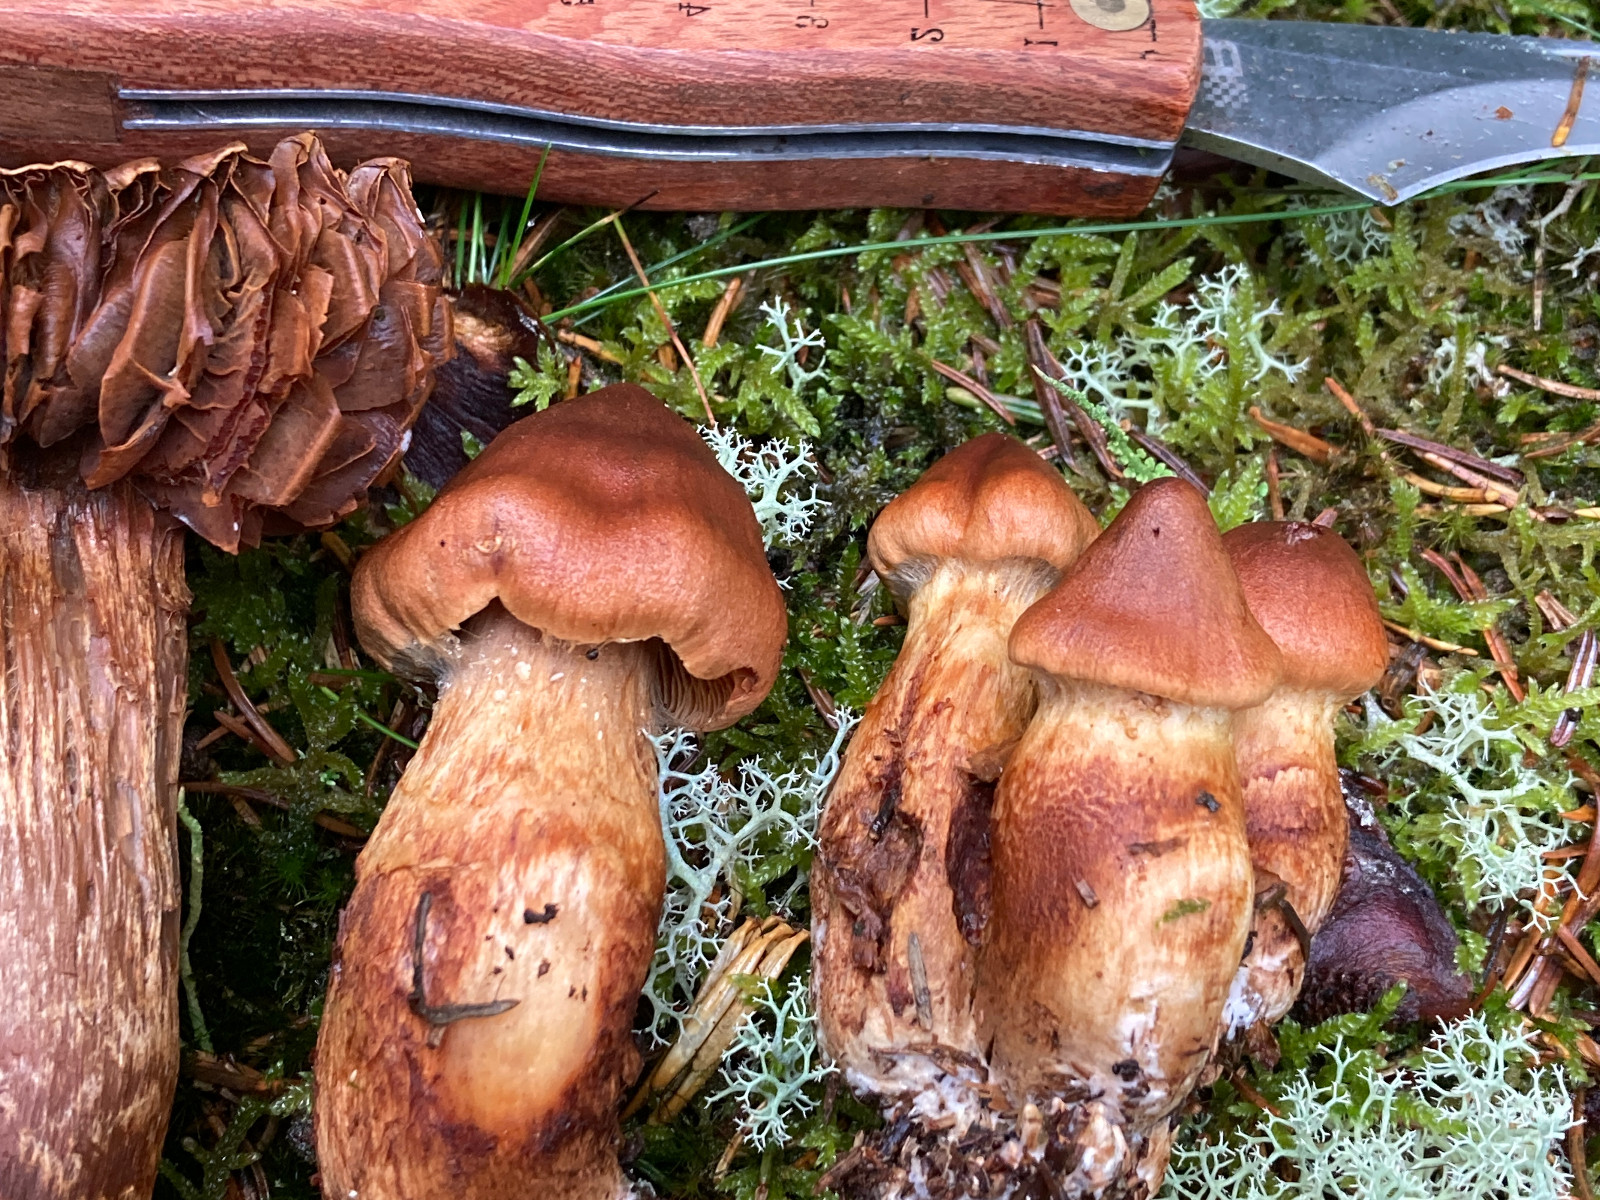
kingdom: Fungi
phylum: Basidiomycota
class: Agaricomycetes
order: Agaricales
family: Cortinariaceae
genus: Cortinarius
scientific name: Cortinarius rubellus
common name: puklet gift-slørhat
